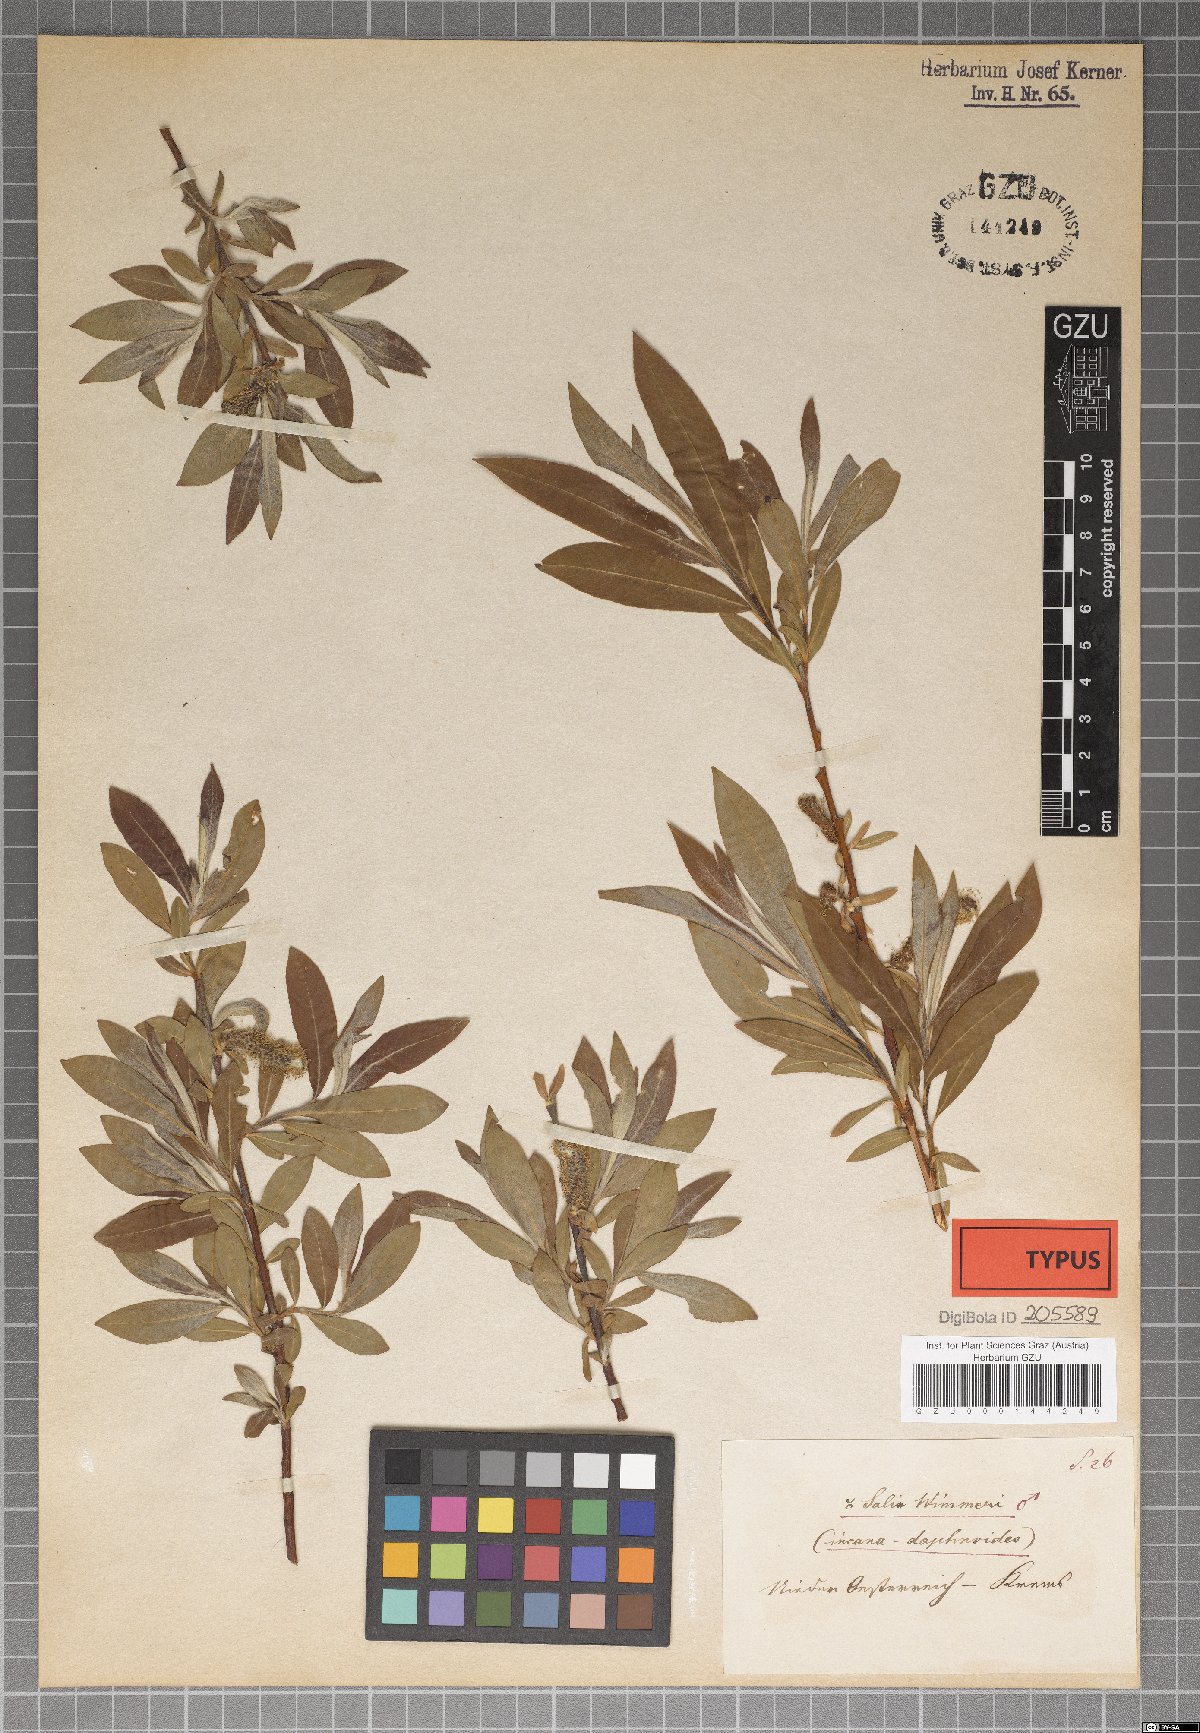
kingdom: Plantae
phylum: Tracheophyta
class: Magnoliopsida
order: Malpighiales
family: Salicaceae
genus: Salix
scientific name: Salix reuteri
